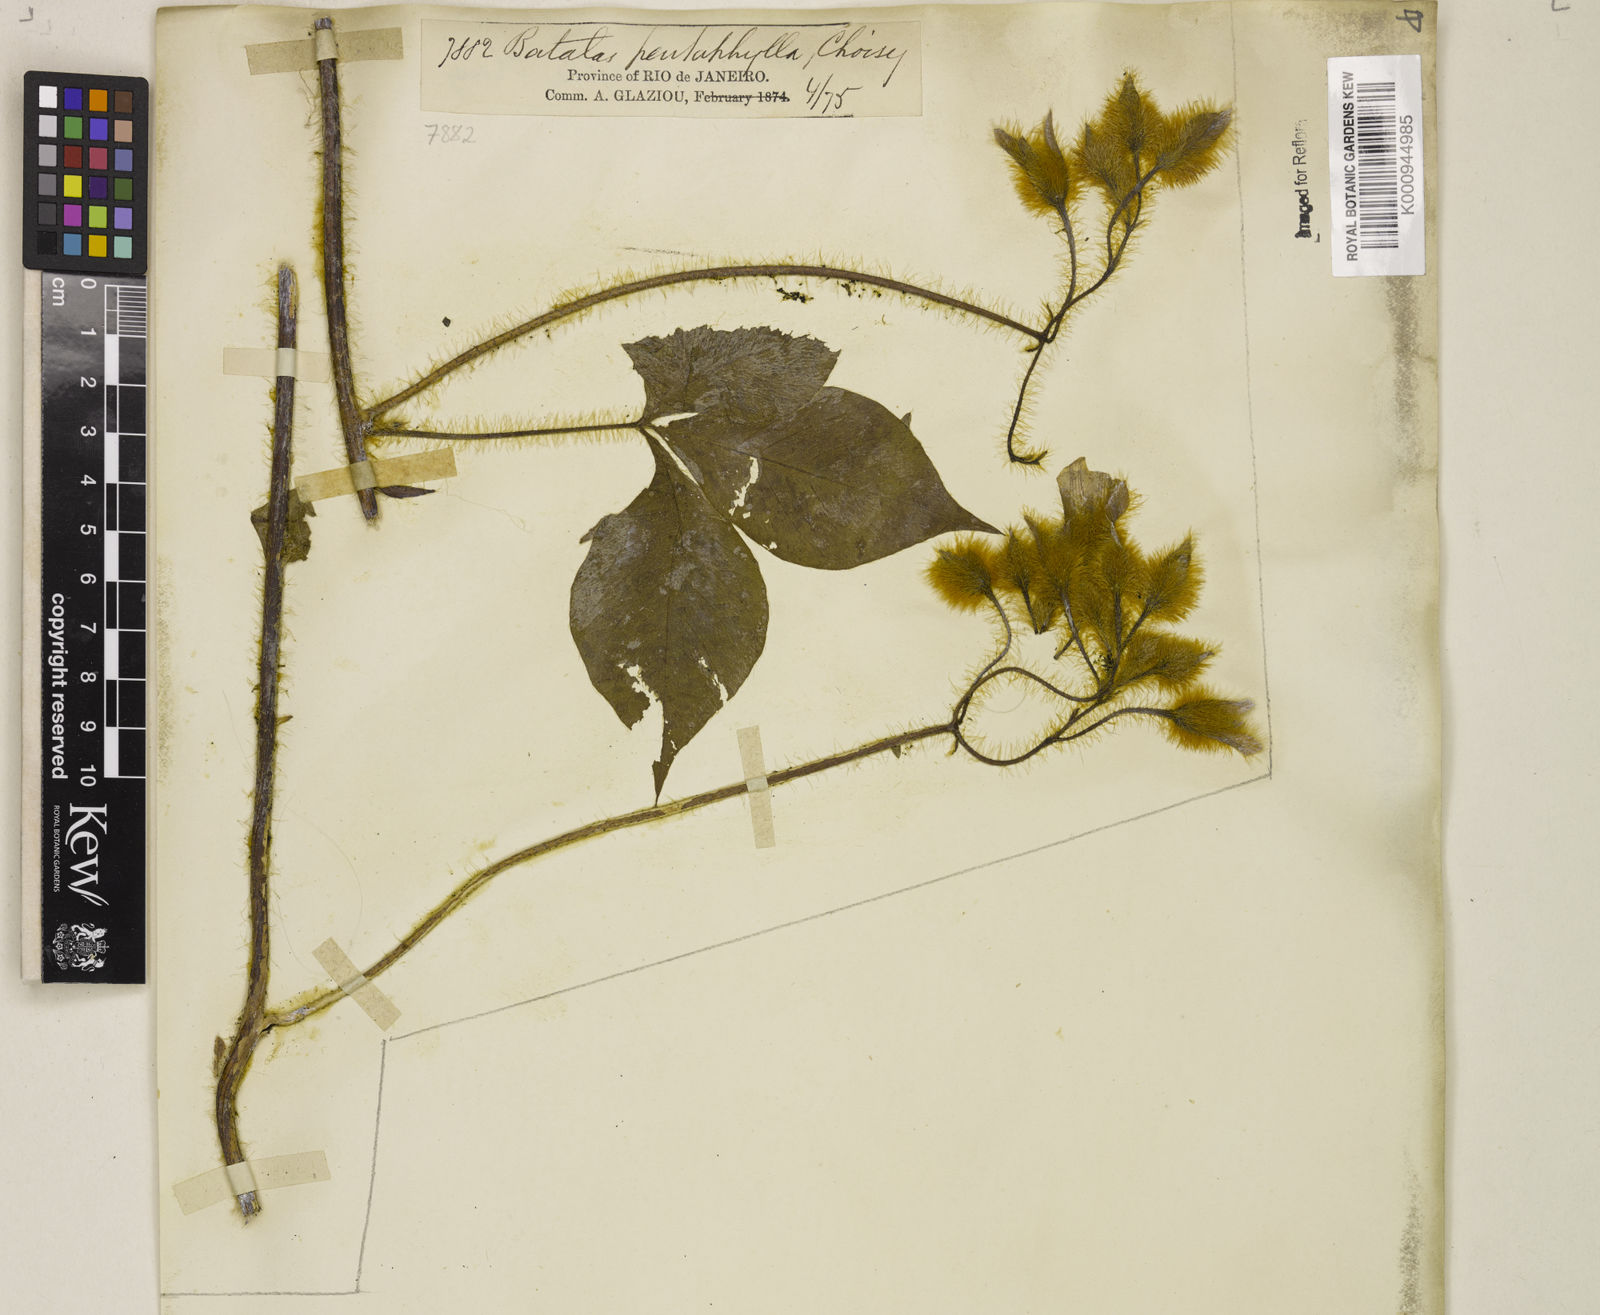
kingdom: Plantae
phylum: Tracheophyta
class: Magnoliopsida
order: Solanales
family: Convolvulaceae
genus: Distimake
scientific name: Distimake aegyptius
